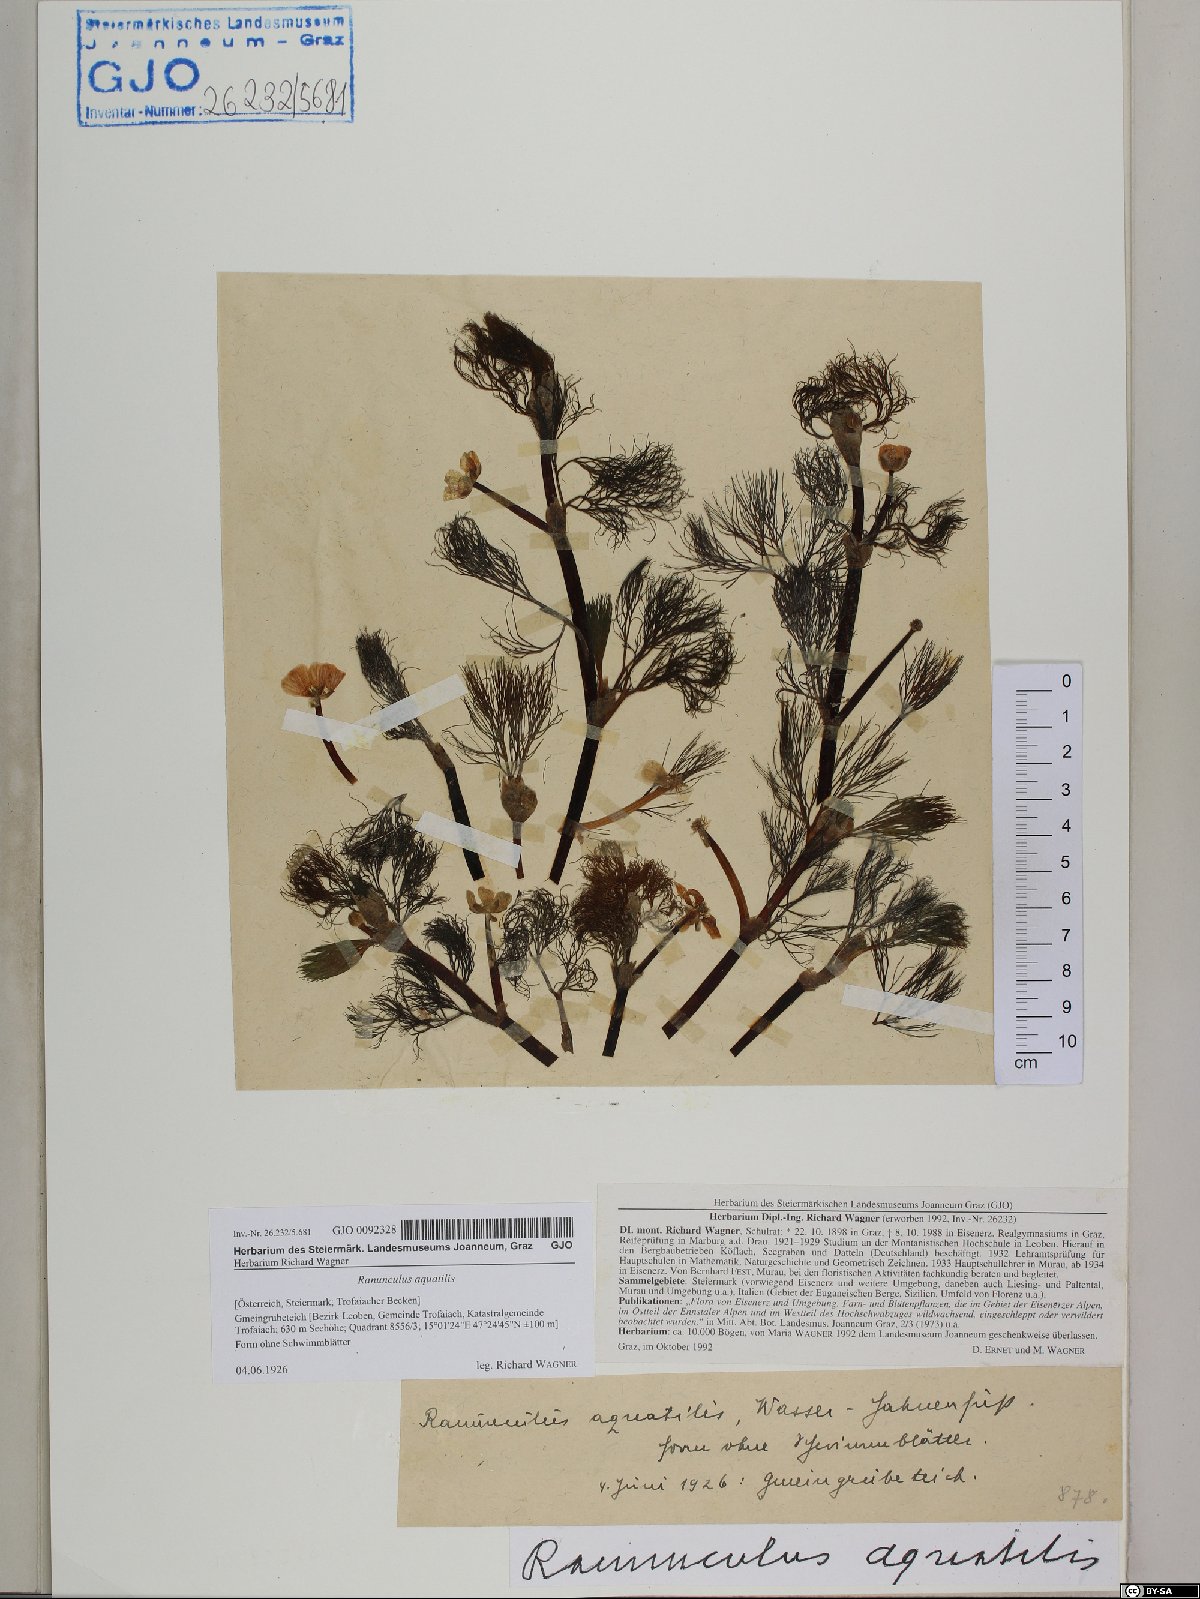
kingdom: Plantae
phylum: Tracheophyta
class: Magnoliopsida
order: Ranunculales
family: Ranunculaceae
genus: Ranunculus
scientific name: Ranunculus aquatilis
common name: Common water-crowfoot
